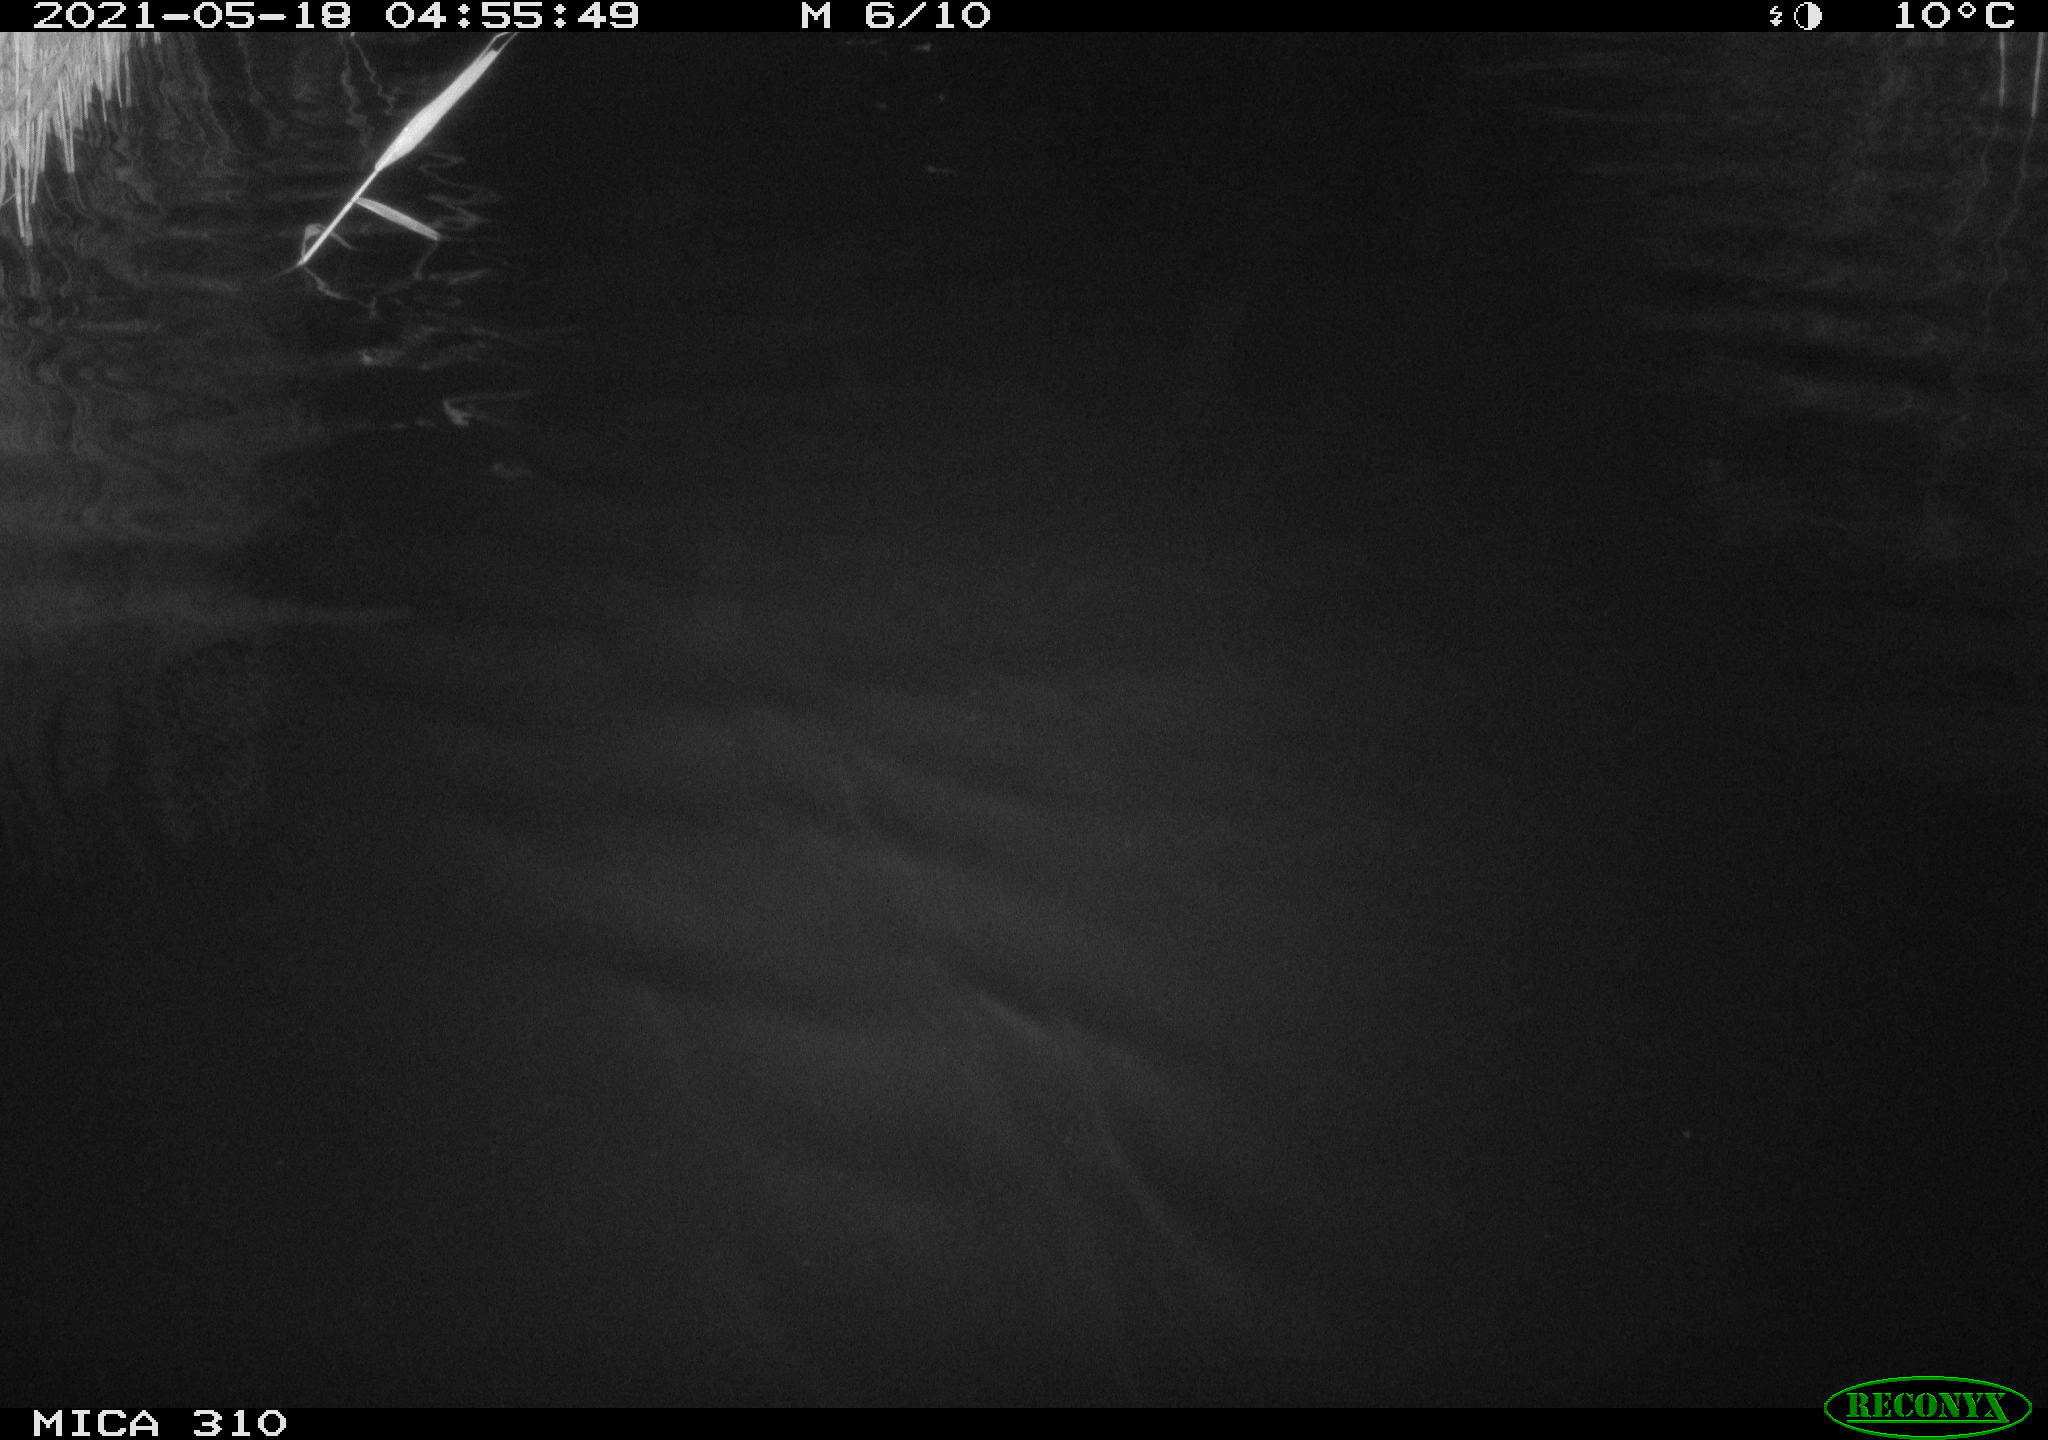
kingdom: Animalia
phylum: Chordata
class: Aves
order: Anseriformes
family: Anatidae
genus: Anas
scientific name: Anas platyrhynchos
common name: Mallard
